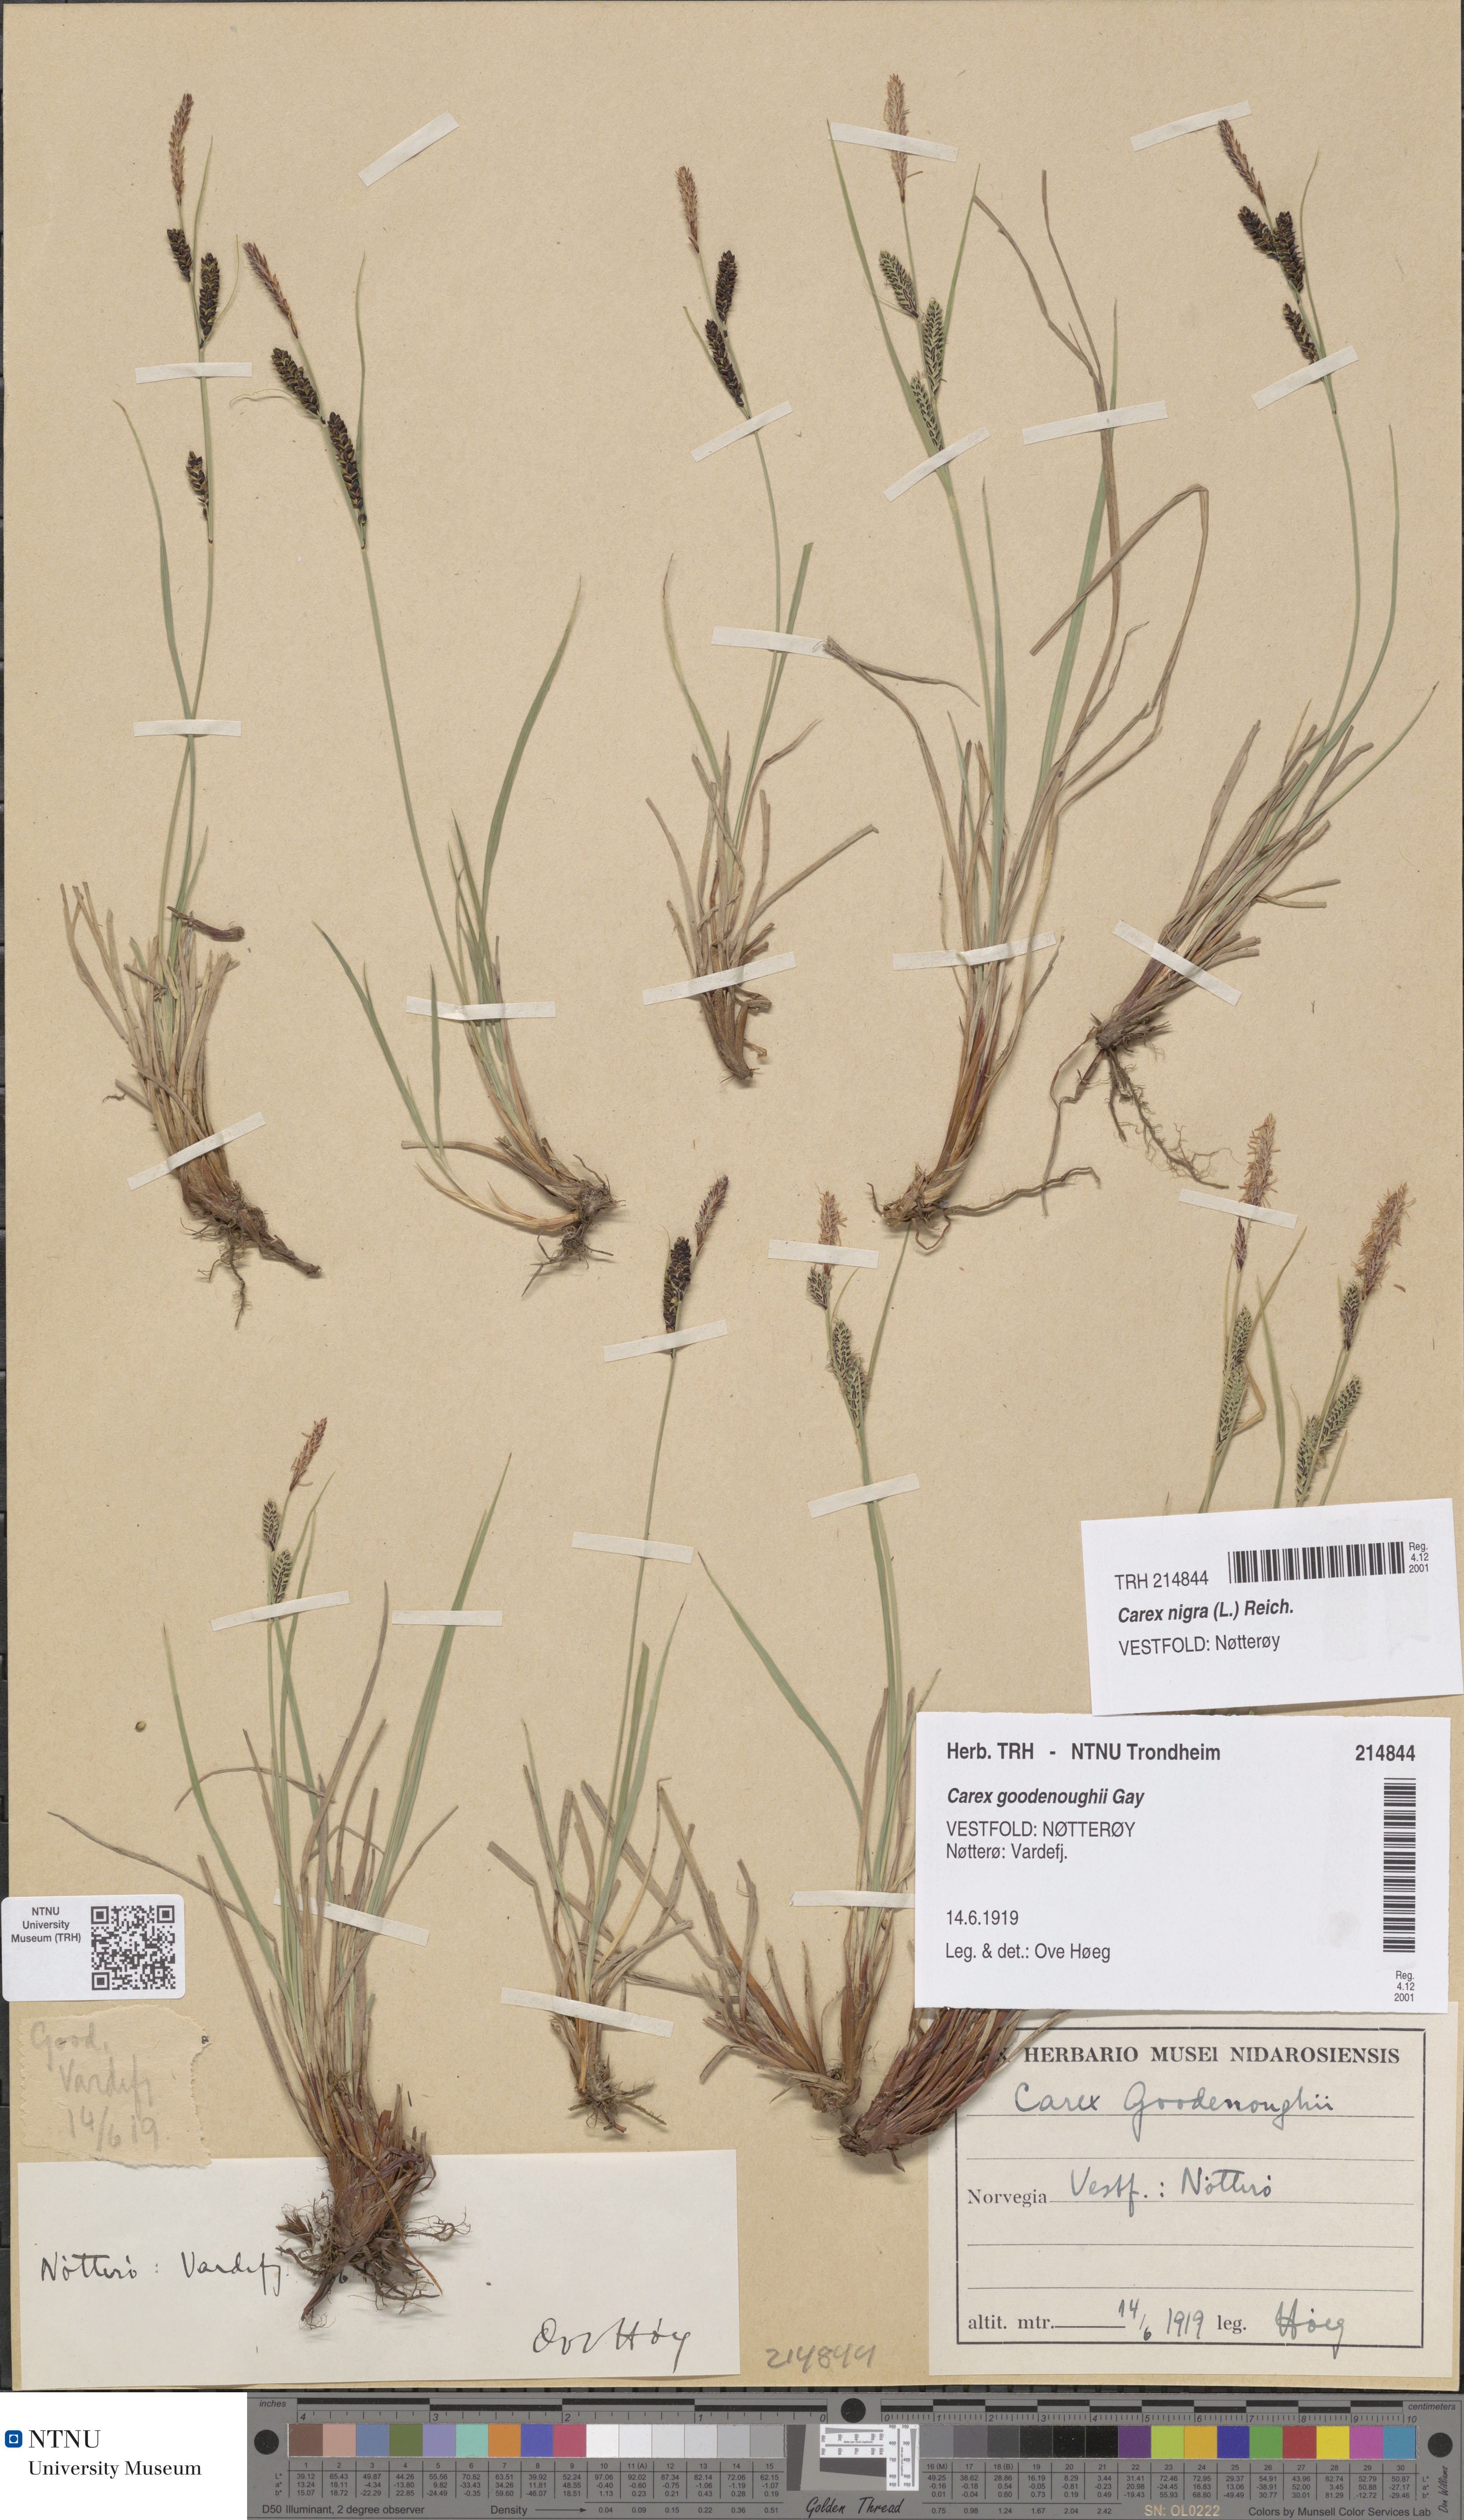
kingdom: Plantae
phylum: Tracheophyta
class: Liliopsida
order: Poales
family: Cyperaceae
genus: Carex
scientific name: Carex nigra
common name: Common sedge
